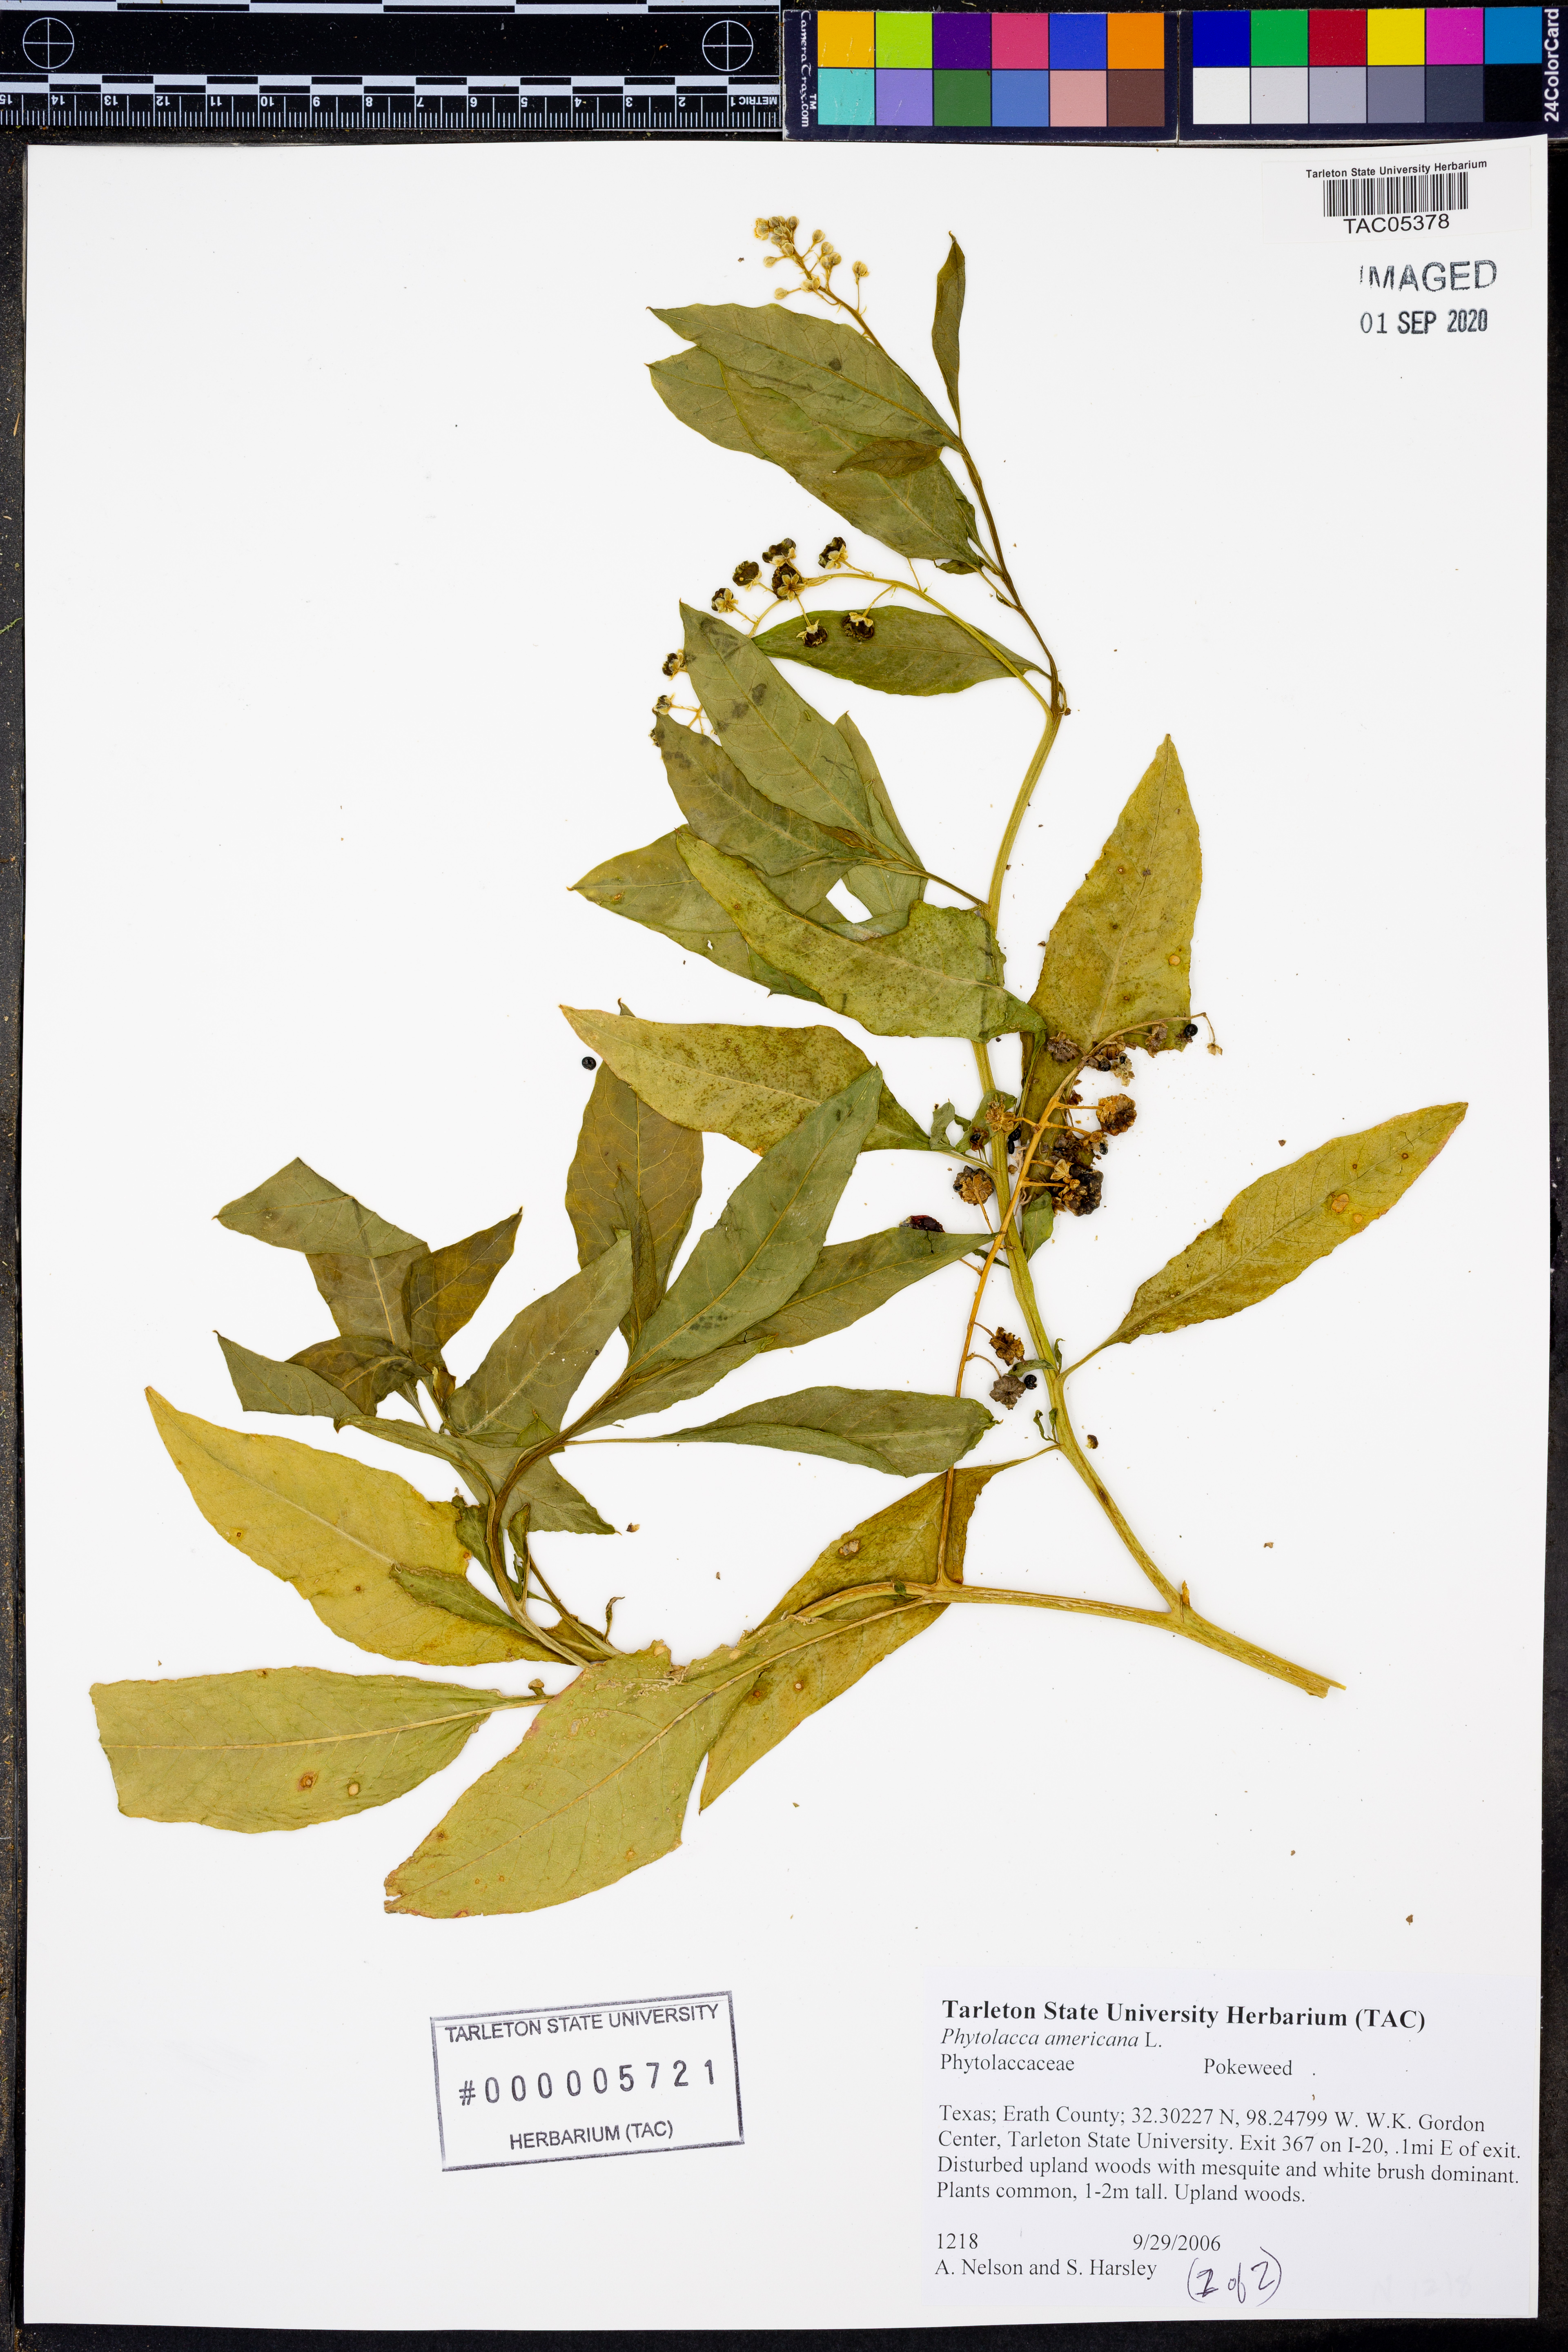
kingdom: Plantae
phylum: Tracheophyta
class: Magnoliopsida
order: Caryophyllales
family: Phytolaccaceae
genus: Phytolacca
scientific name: Phytolacca americana
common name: American pokeweed
